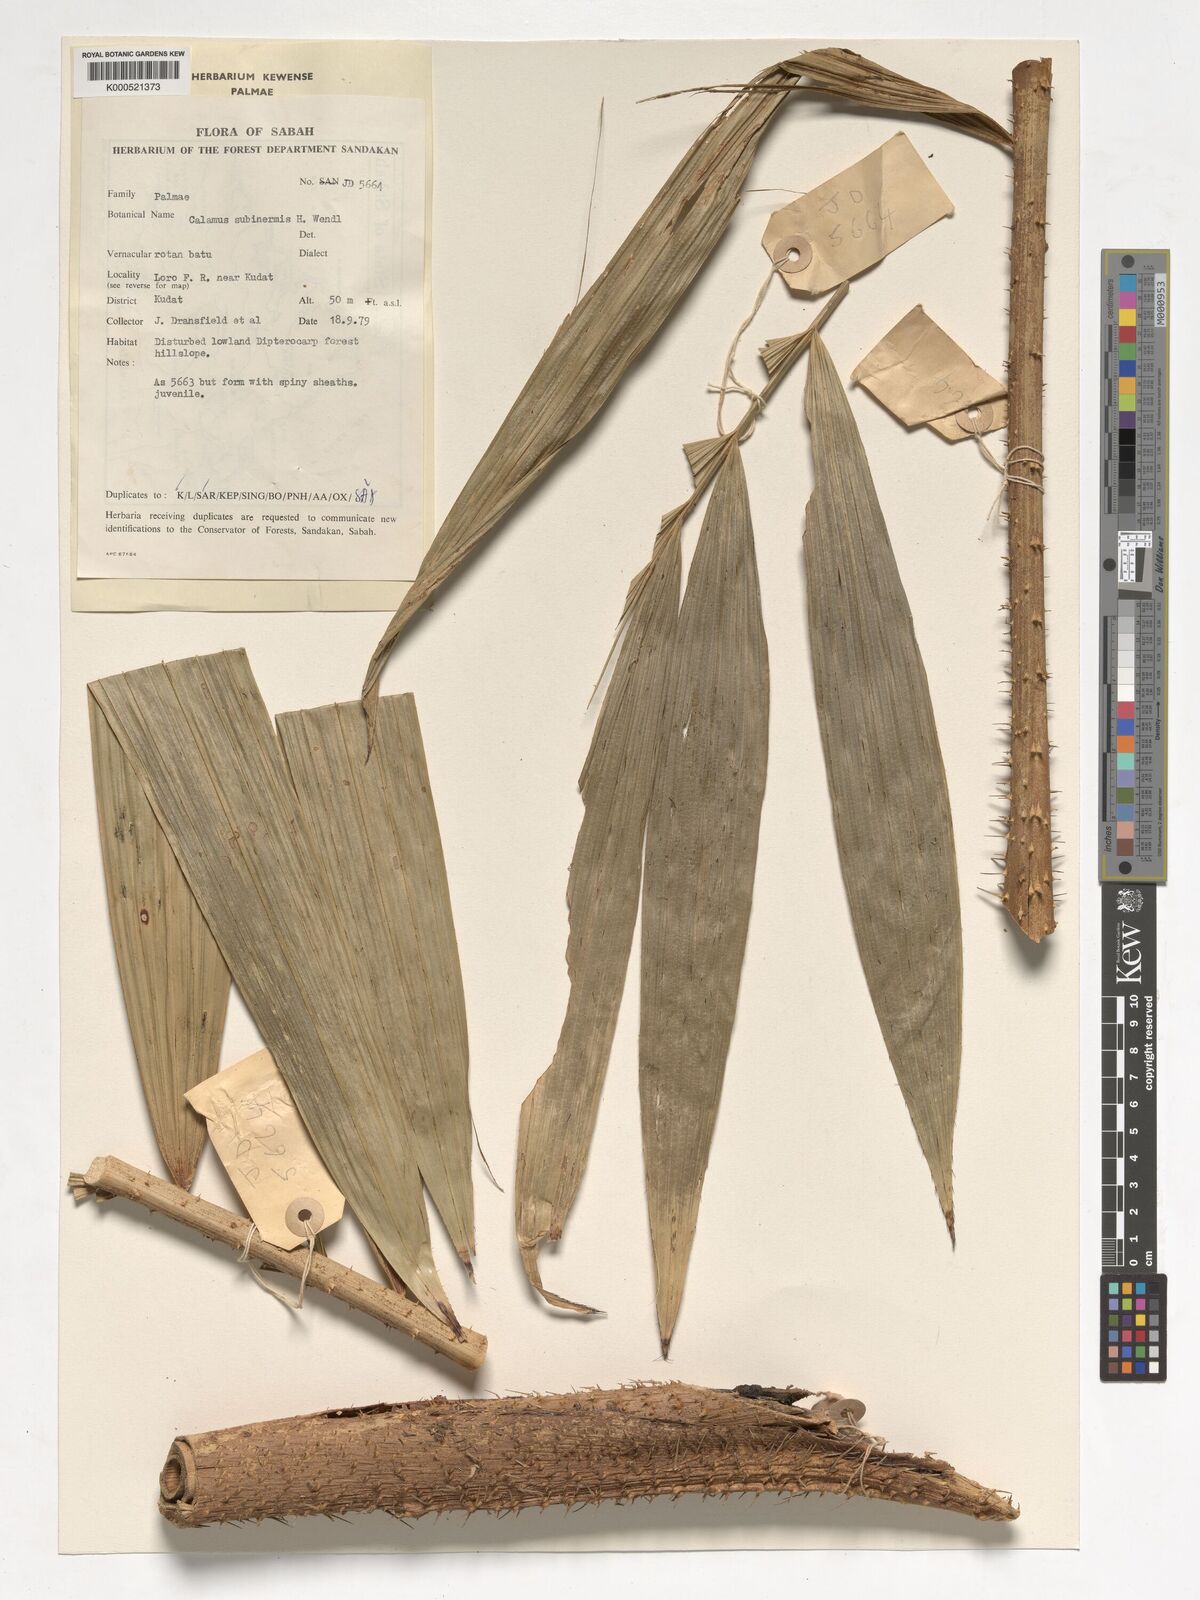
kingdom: Plantae
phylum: Tracheophyta
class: Liliopsida
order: Arecales
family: Arecaceae
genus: Calamus
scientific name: Calamus moseleyanus
